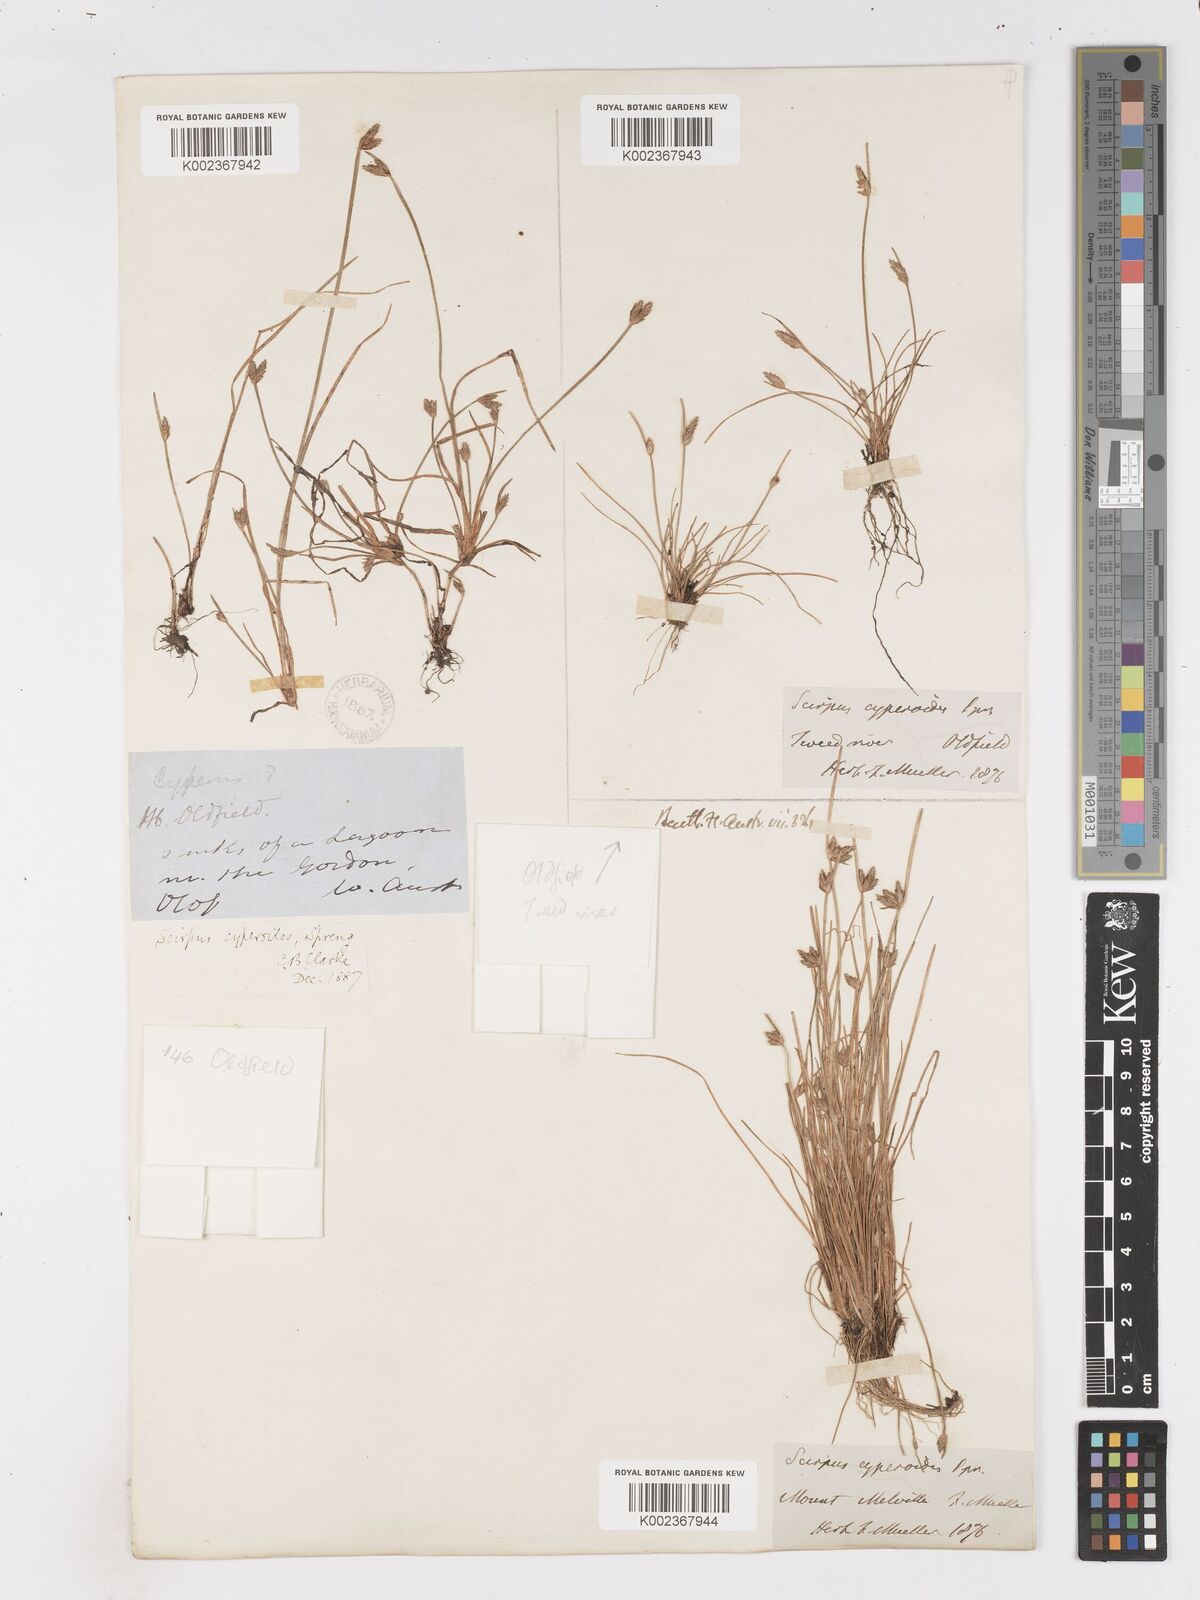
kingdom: Plantae
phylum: Tracheophyta
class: Liliopsida
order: Poales
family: Cyperaceae
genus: Isolepis
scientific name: Isolepis cyperoides
